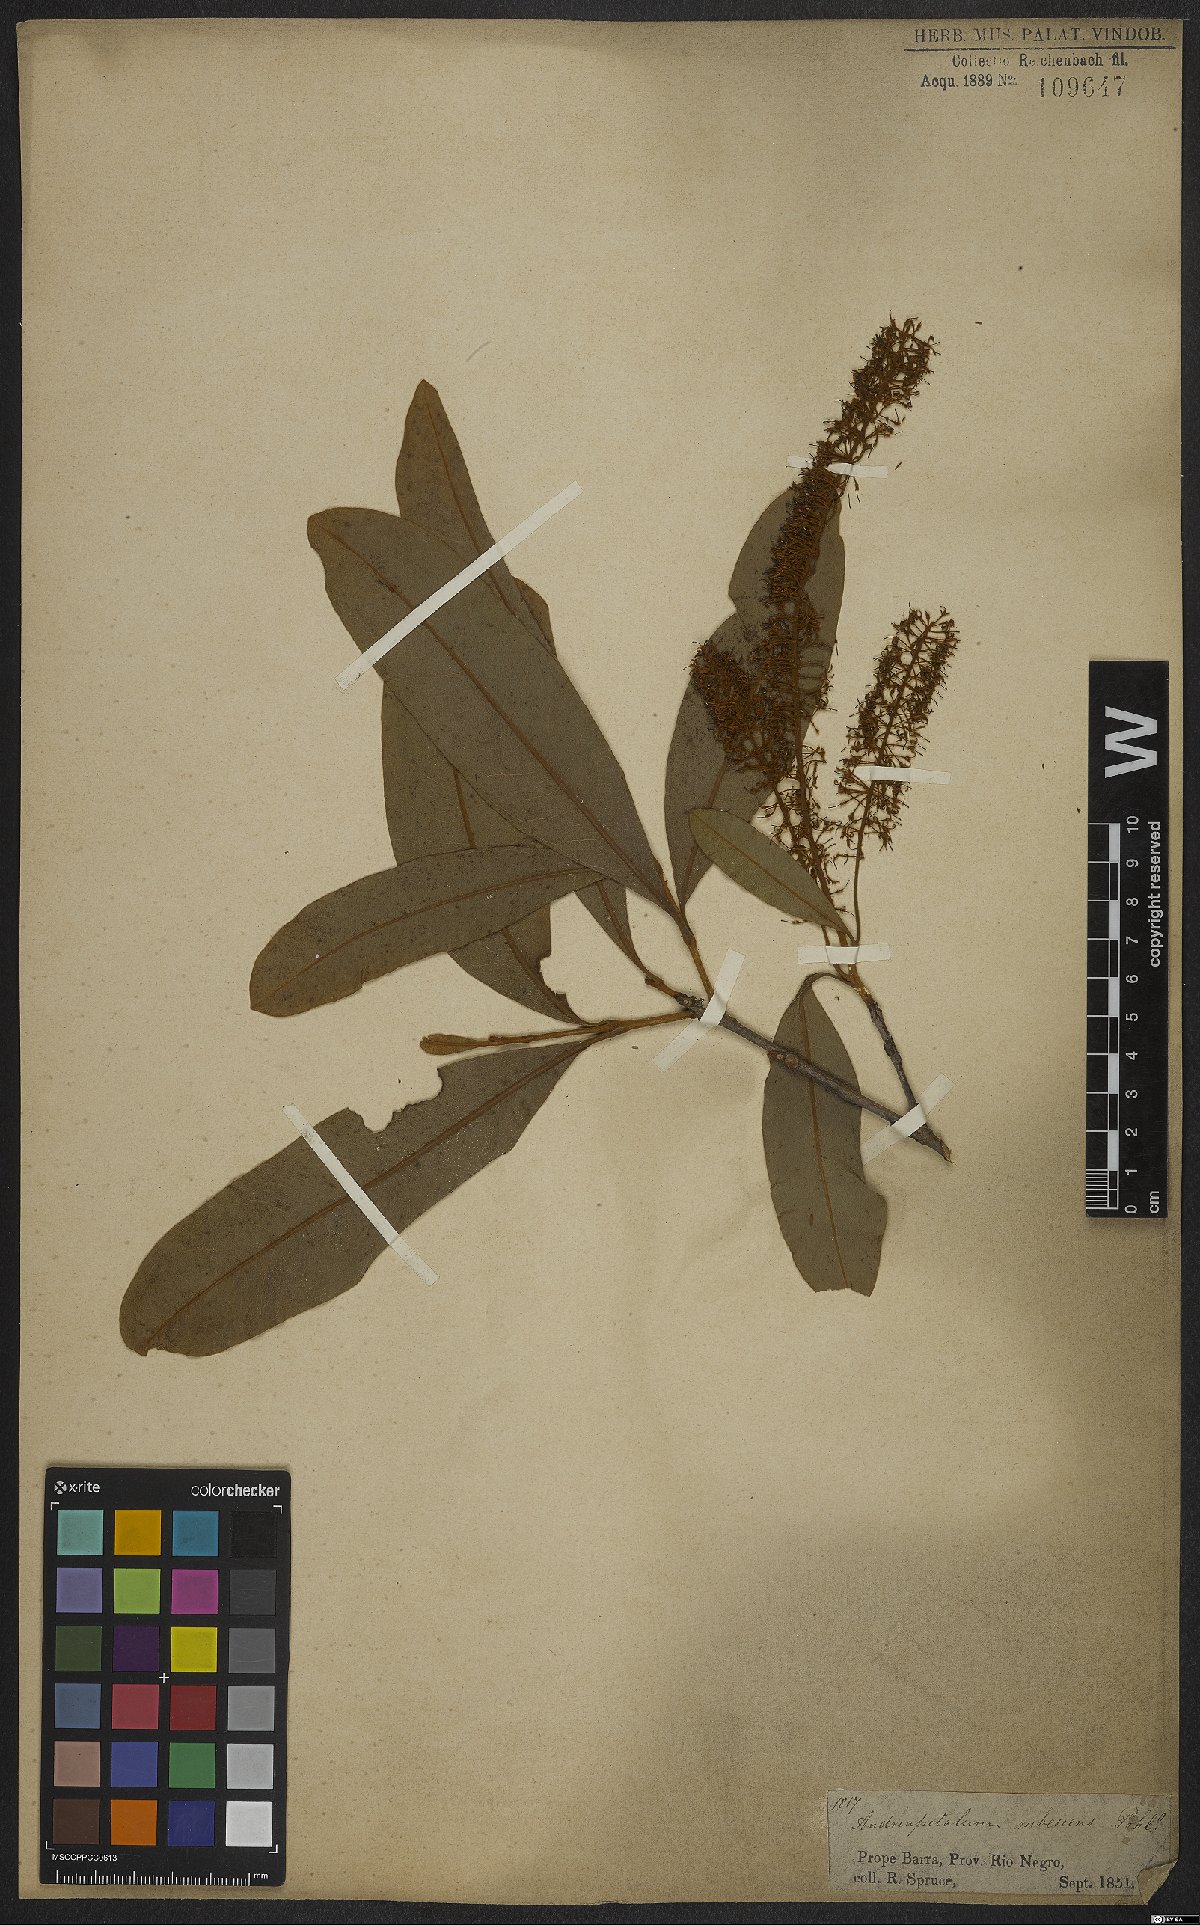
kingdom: Plantae
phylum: Tracheophyta
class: Magnoliopsida
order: Proteales
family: Proteaceae
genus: Panopsis
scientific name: Panopsis rubescens
